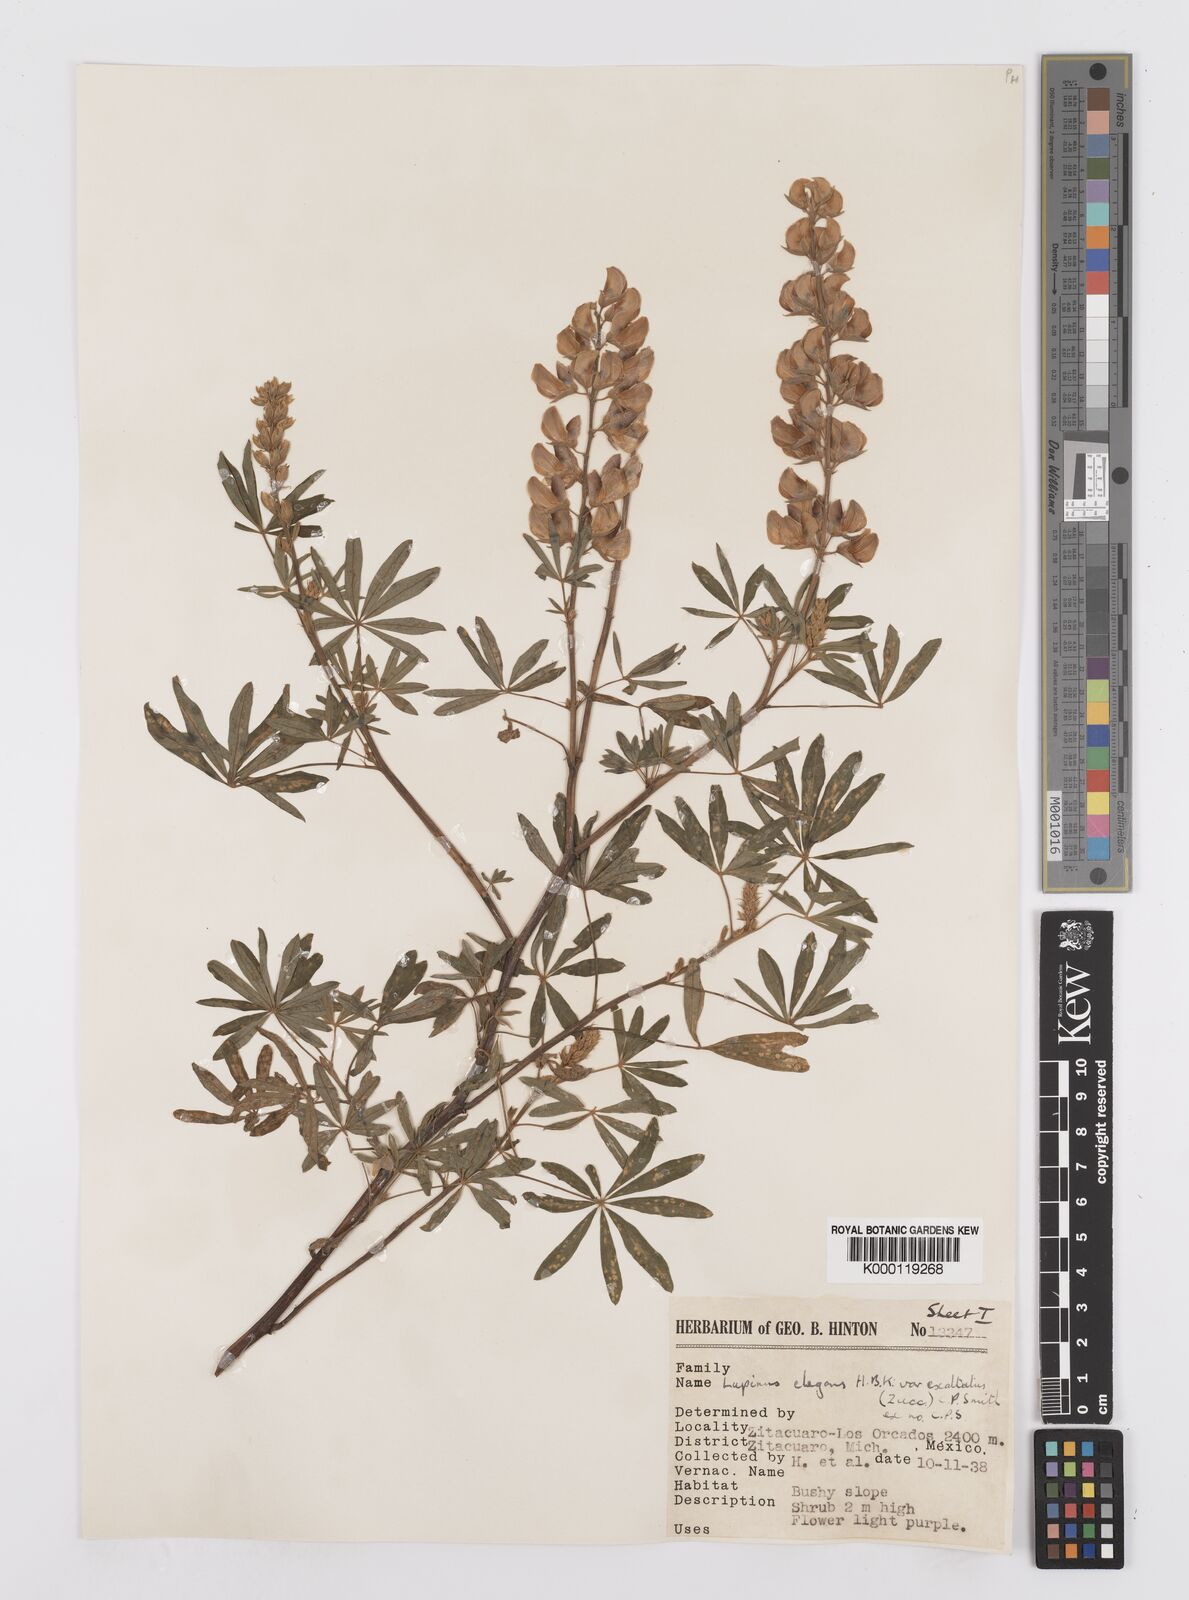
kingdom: Plantae
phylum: Tracheophyta
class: Magnoliopsida
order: Fabales
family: Fabaceae
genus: Lupinus
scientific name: Lupinus elegans
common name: Mexican lupine
